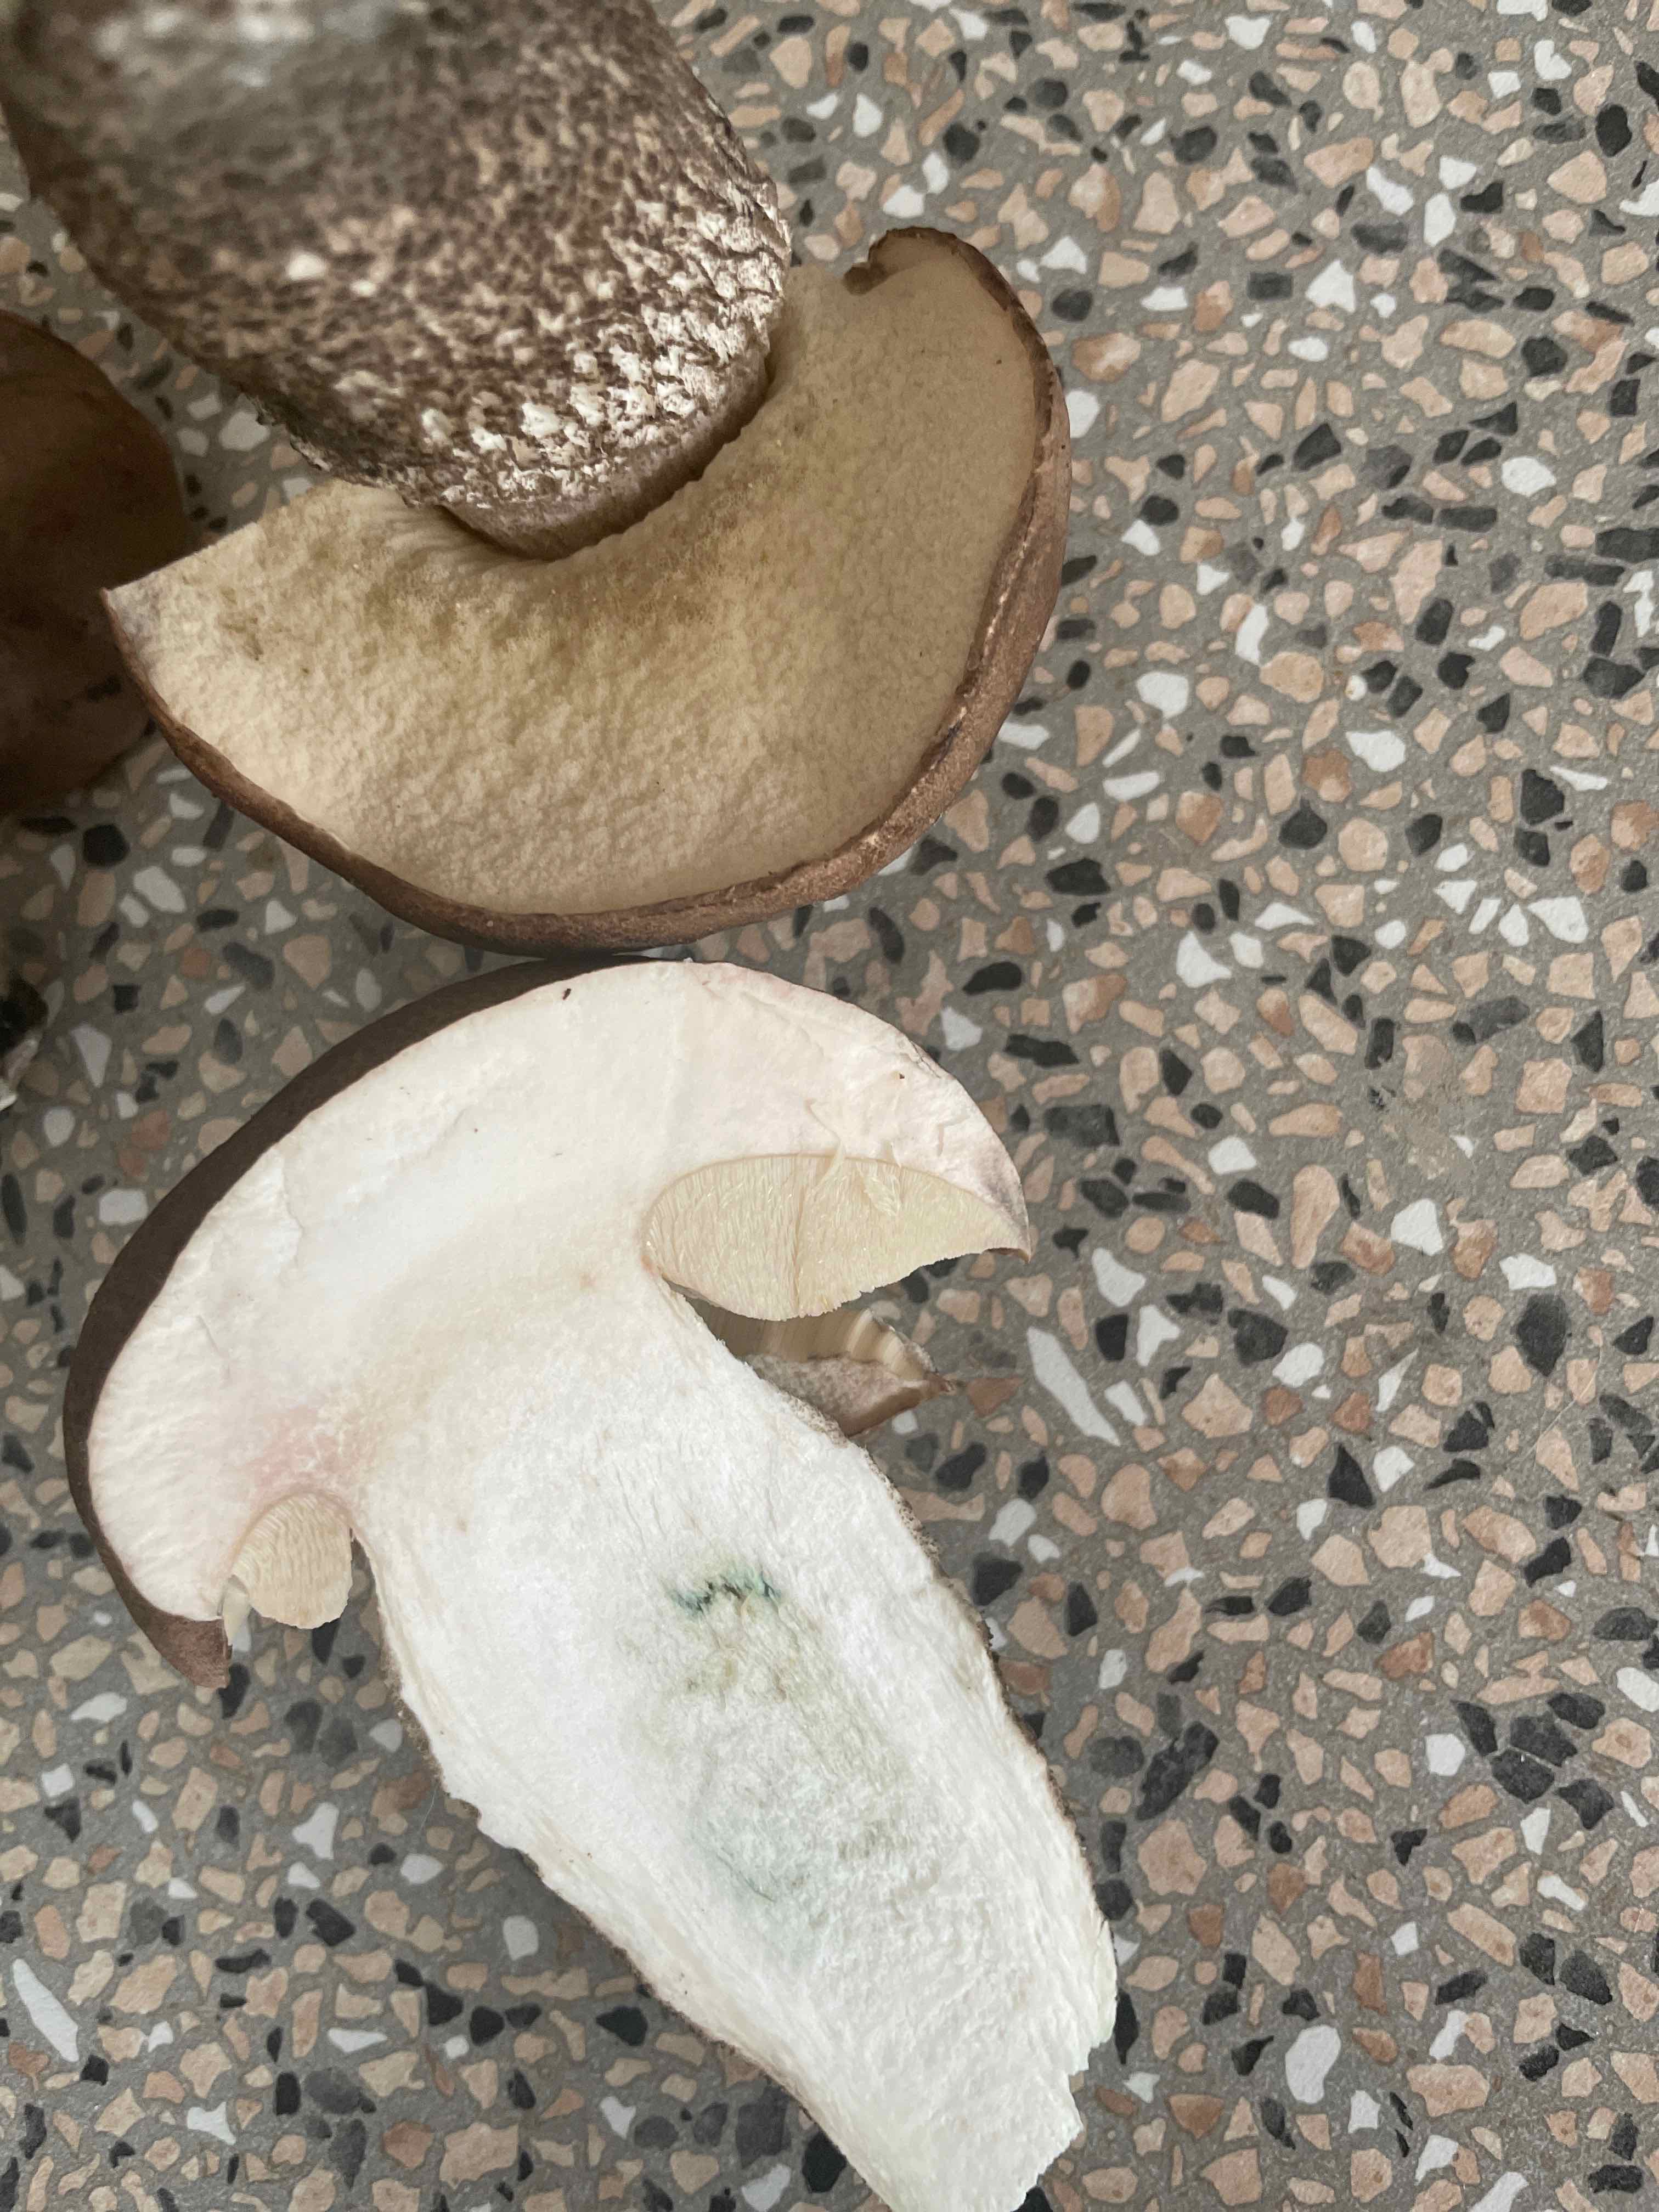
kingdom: Fungi
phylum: Basidiomycota
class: Agaricomycetes
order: Boletales
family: Boletaceae
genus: Leccinum
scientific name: Leccinum duriusculum
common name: poppel-skælrørhat
